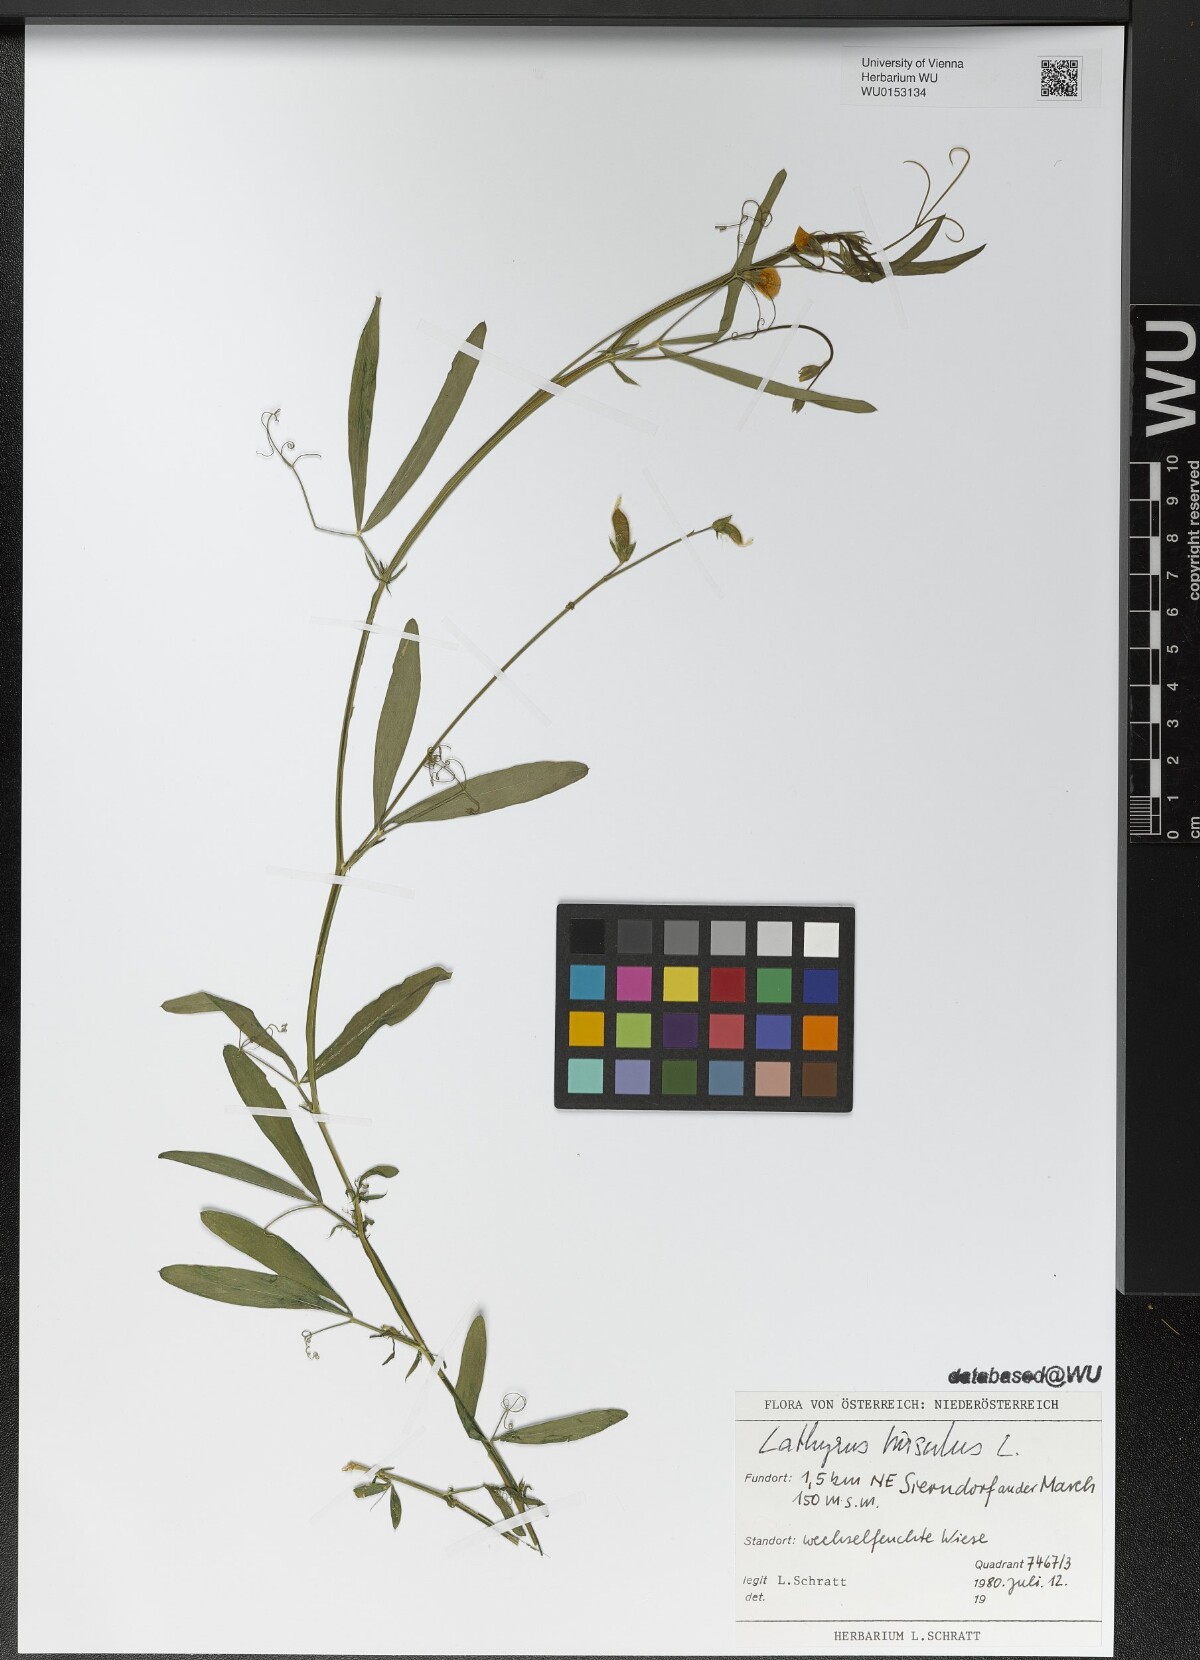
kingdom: Plantae
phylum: Tracheophyta
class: Magnoliopsida
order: Fabales
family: Fabaceae
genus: Lathyrus
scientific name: Lathyrus hirsutus
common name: Hairy vetchling
